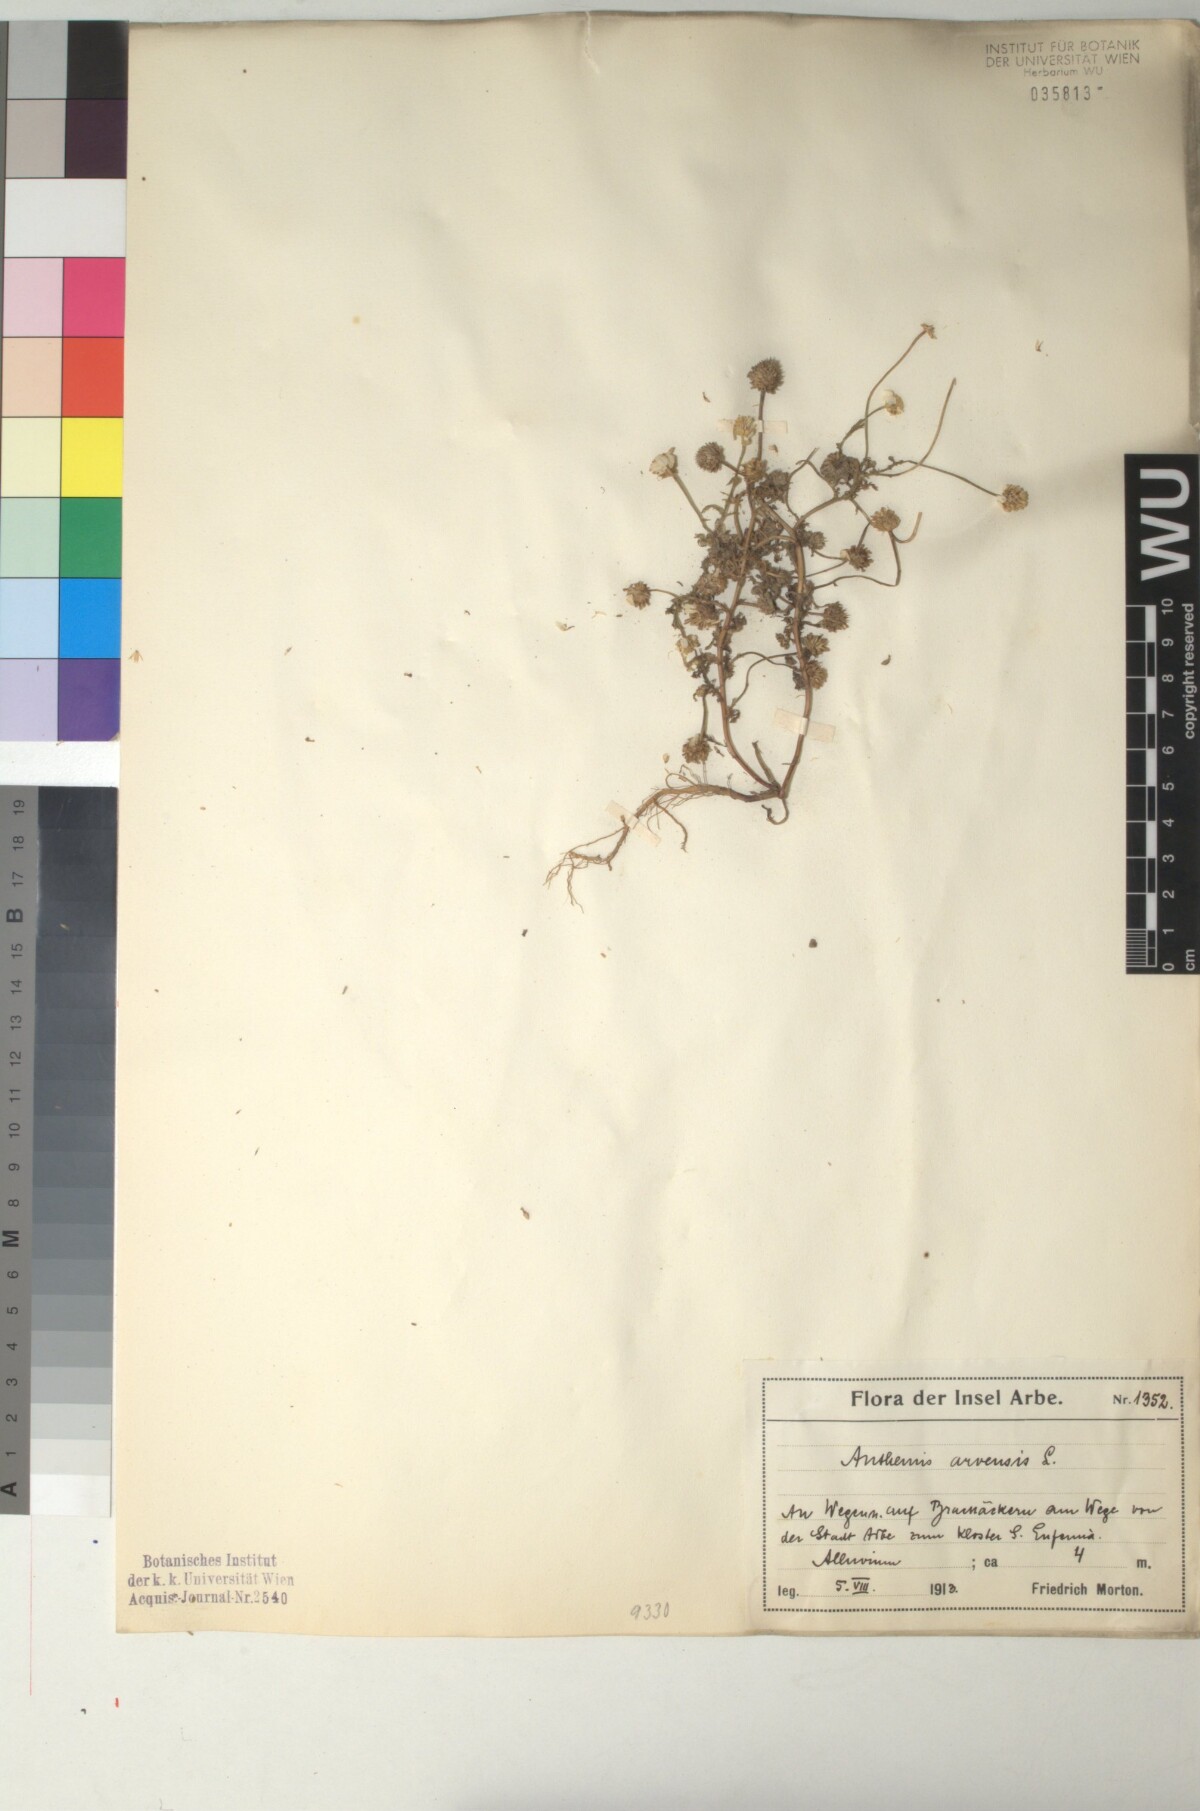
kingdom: Plantae
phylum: Tracheophyta
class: Magnoliopsida
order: Asterales
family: Asteraceae
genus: Anthemis
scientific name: Anthemis arvensis
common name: Corn chamomile
